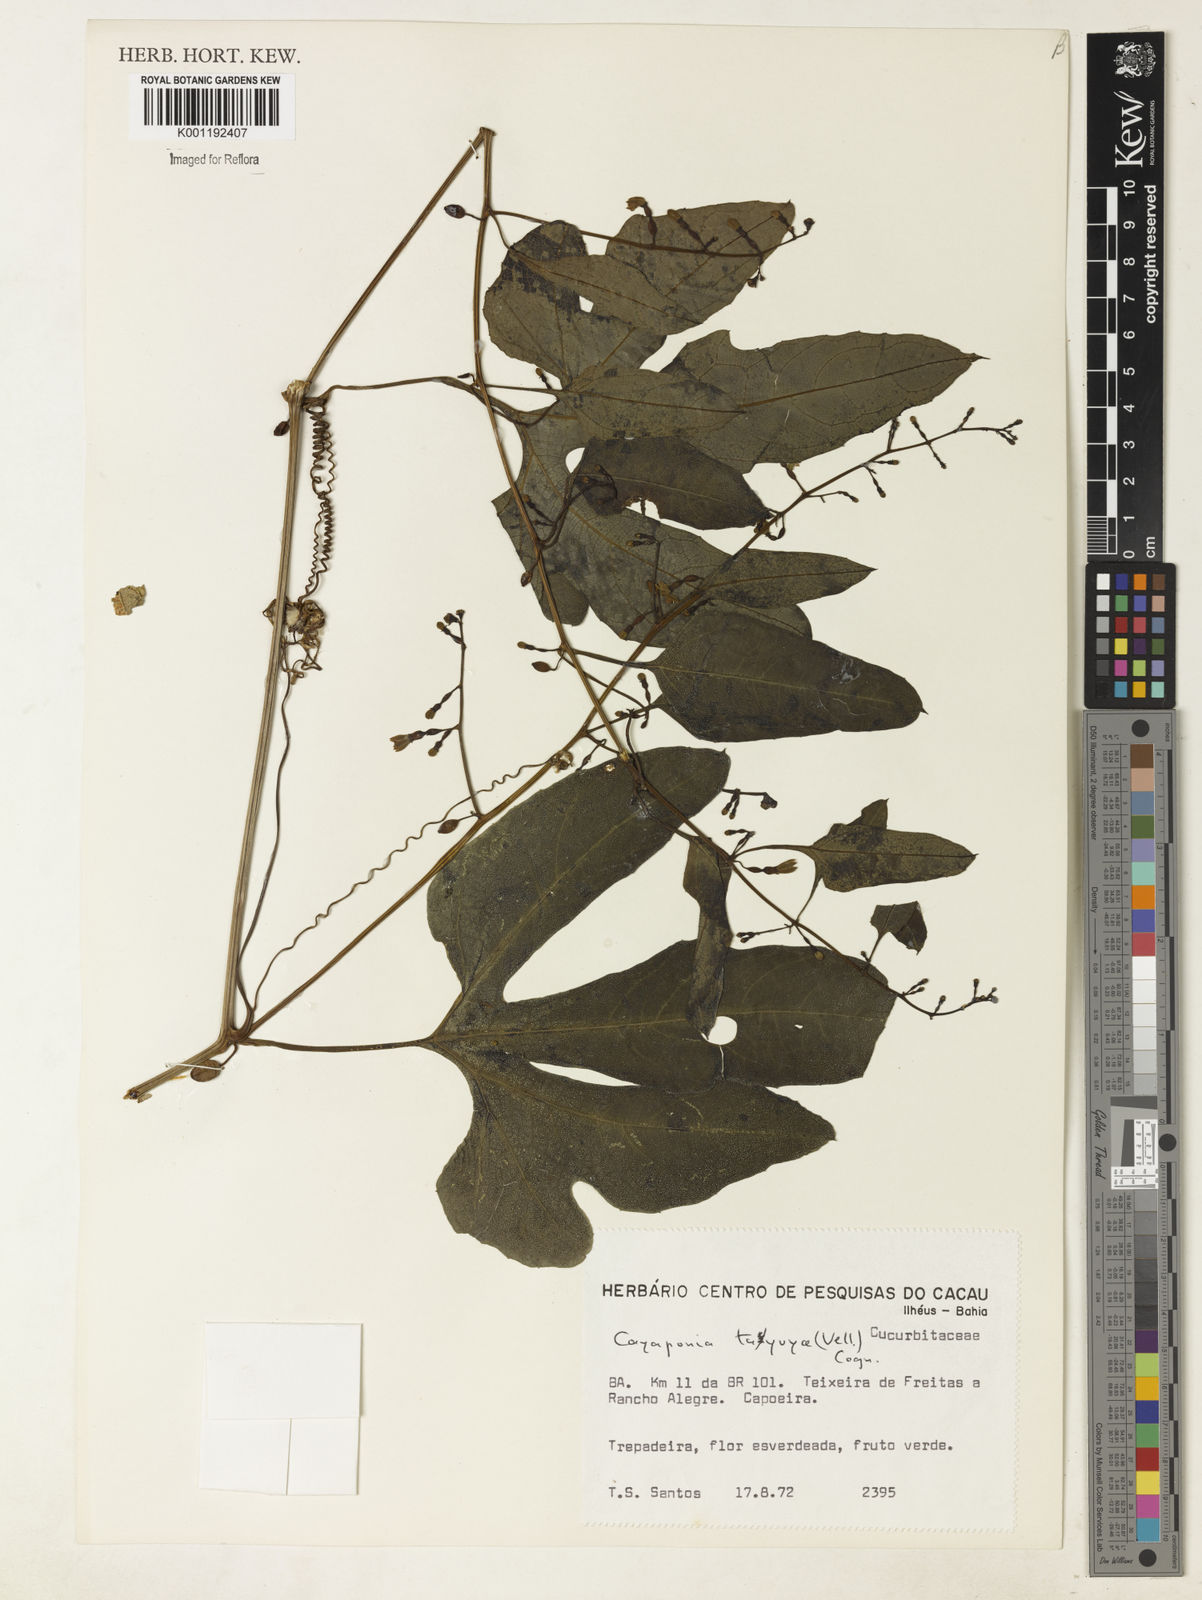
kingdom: Plantae
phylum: Tracheophyta
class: Magnoliopsida
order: Cucurbitales
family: Cucurbitaceae
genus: Cayaponia
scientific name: Cayaponia tayuya
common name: Tayuya
